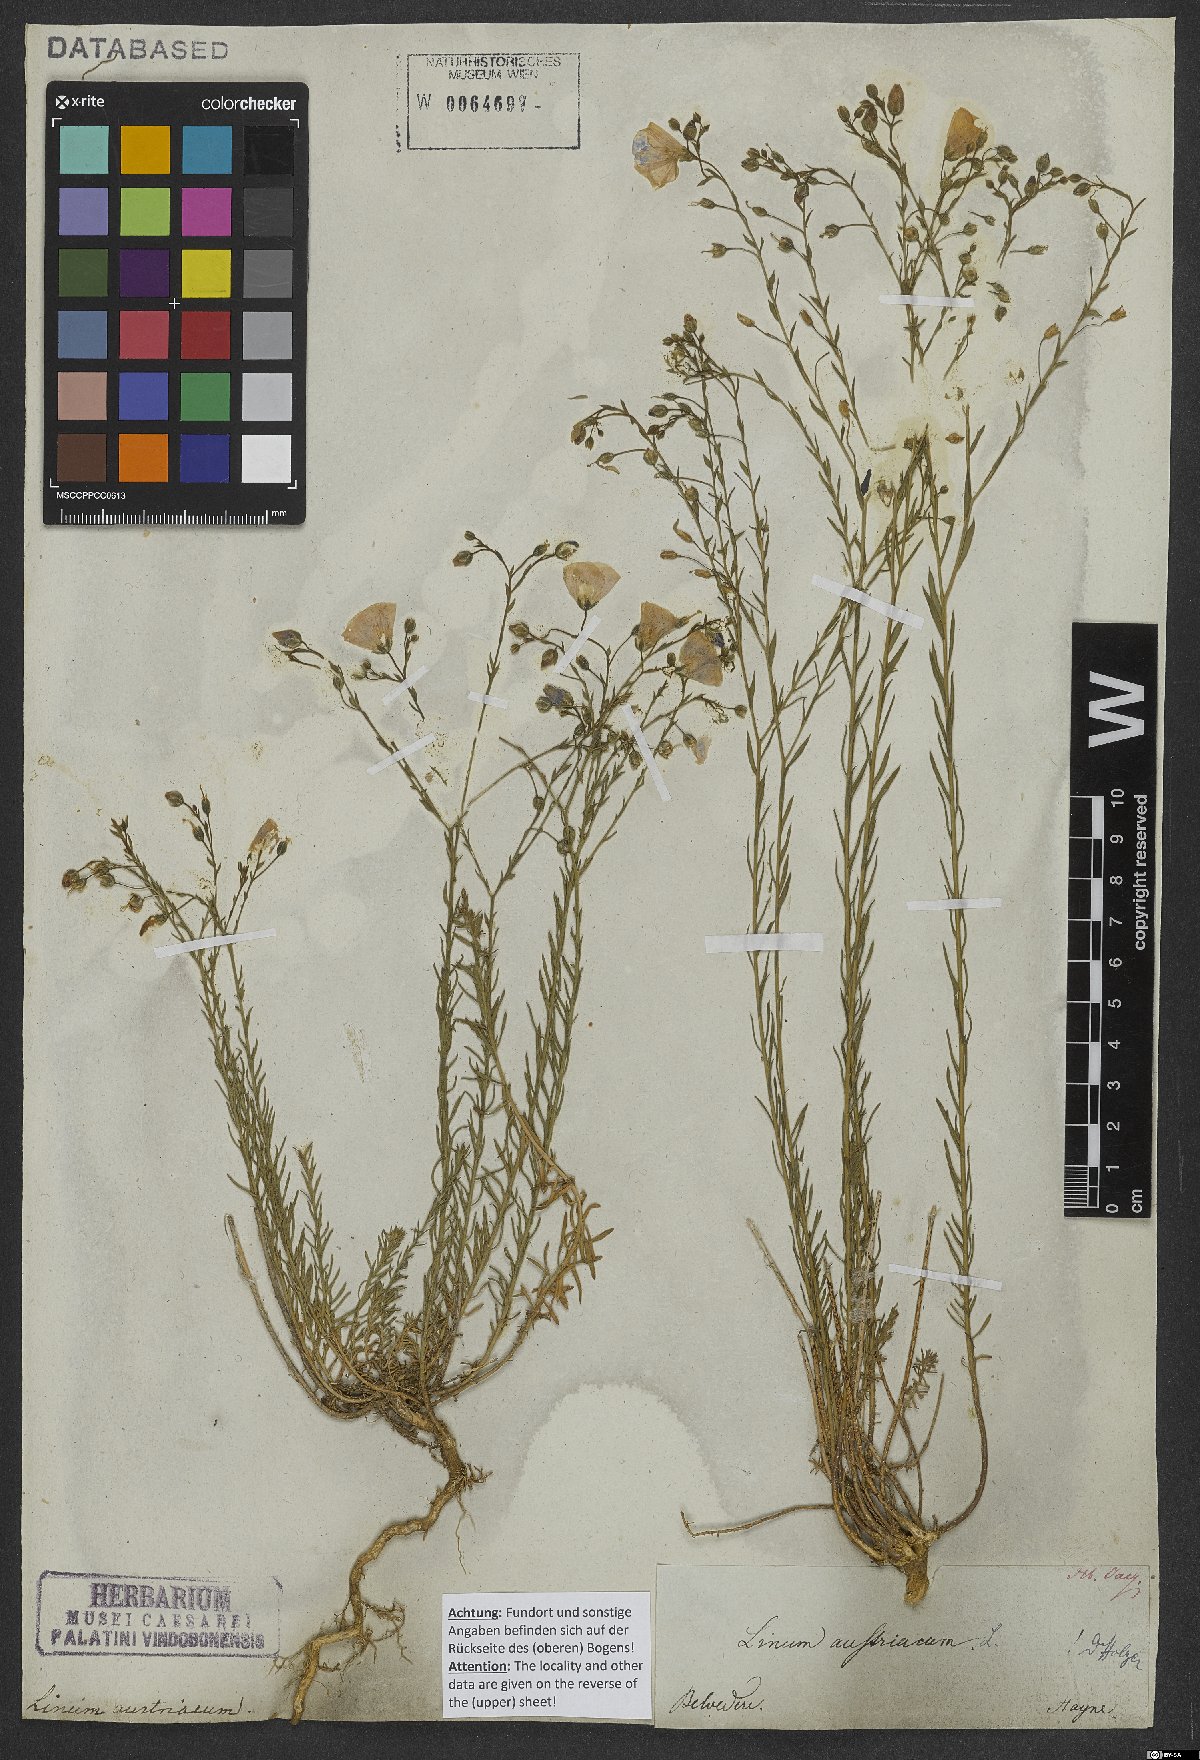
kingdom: Plantae
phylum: Tracheophyta
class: Magnoliopsida
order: Malpighiales
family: Linaceae
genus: Linum
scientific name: Linum austriacum
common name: Austrian flax
